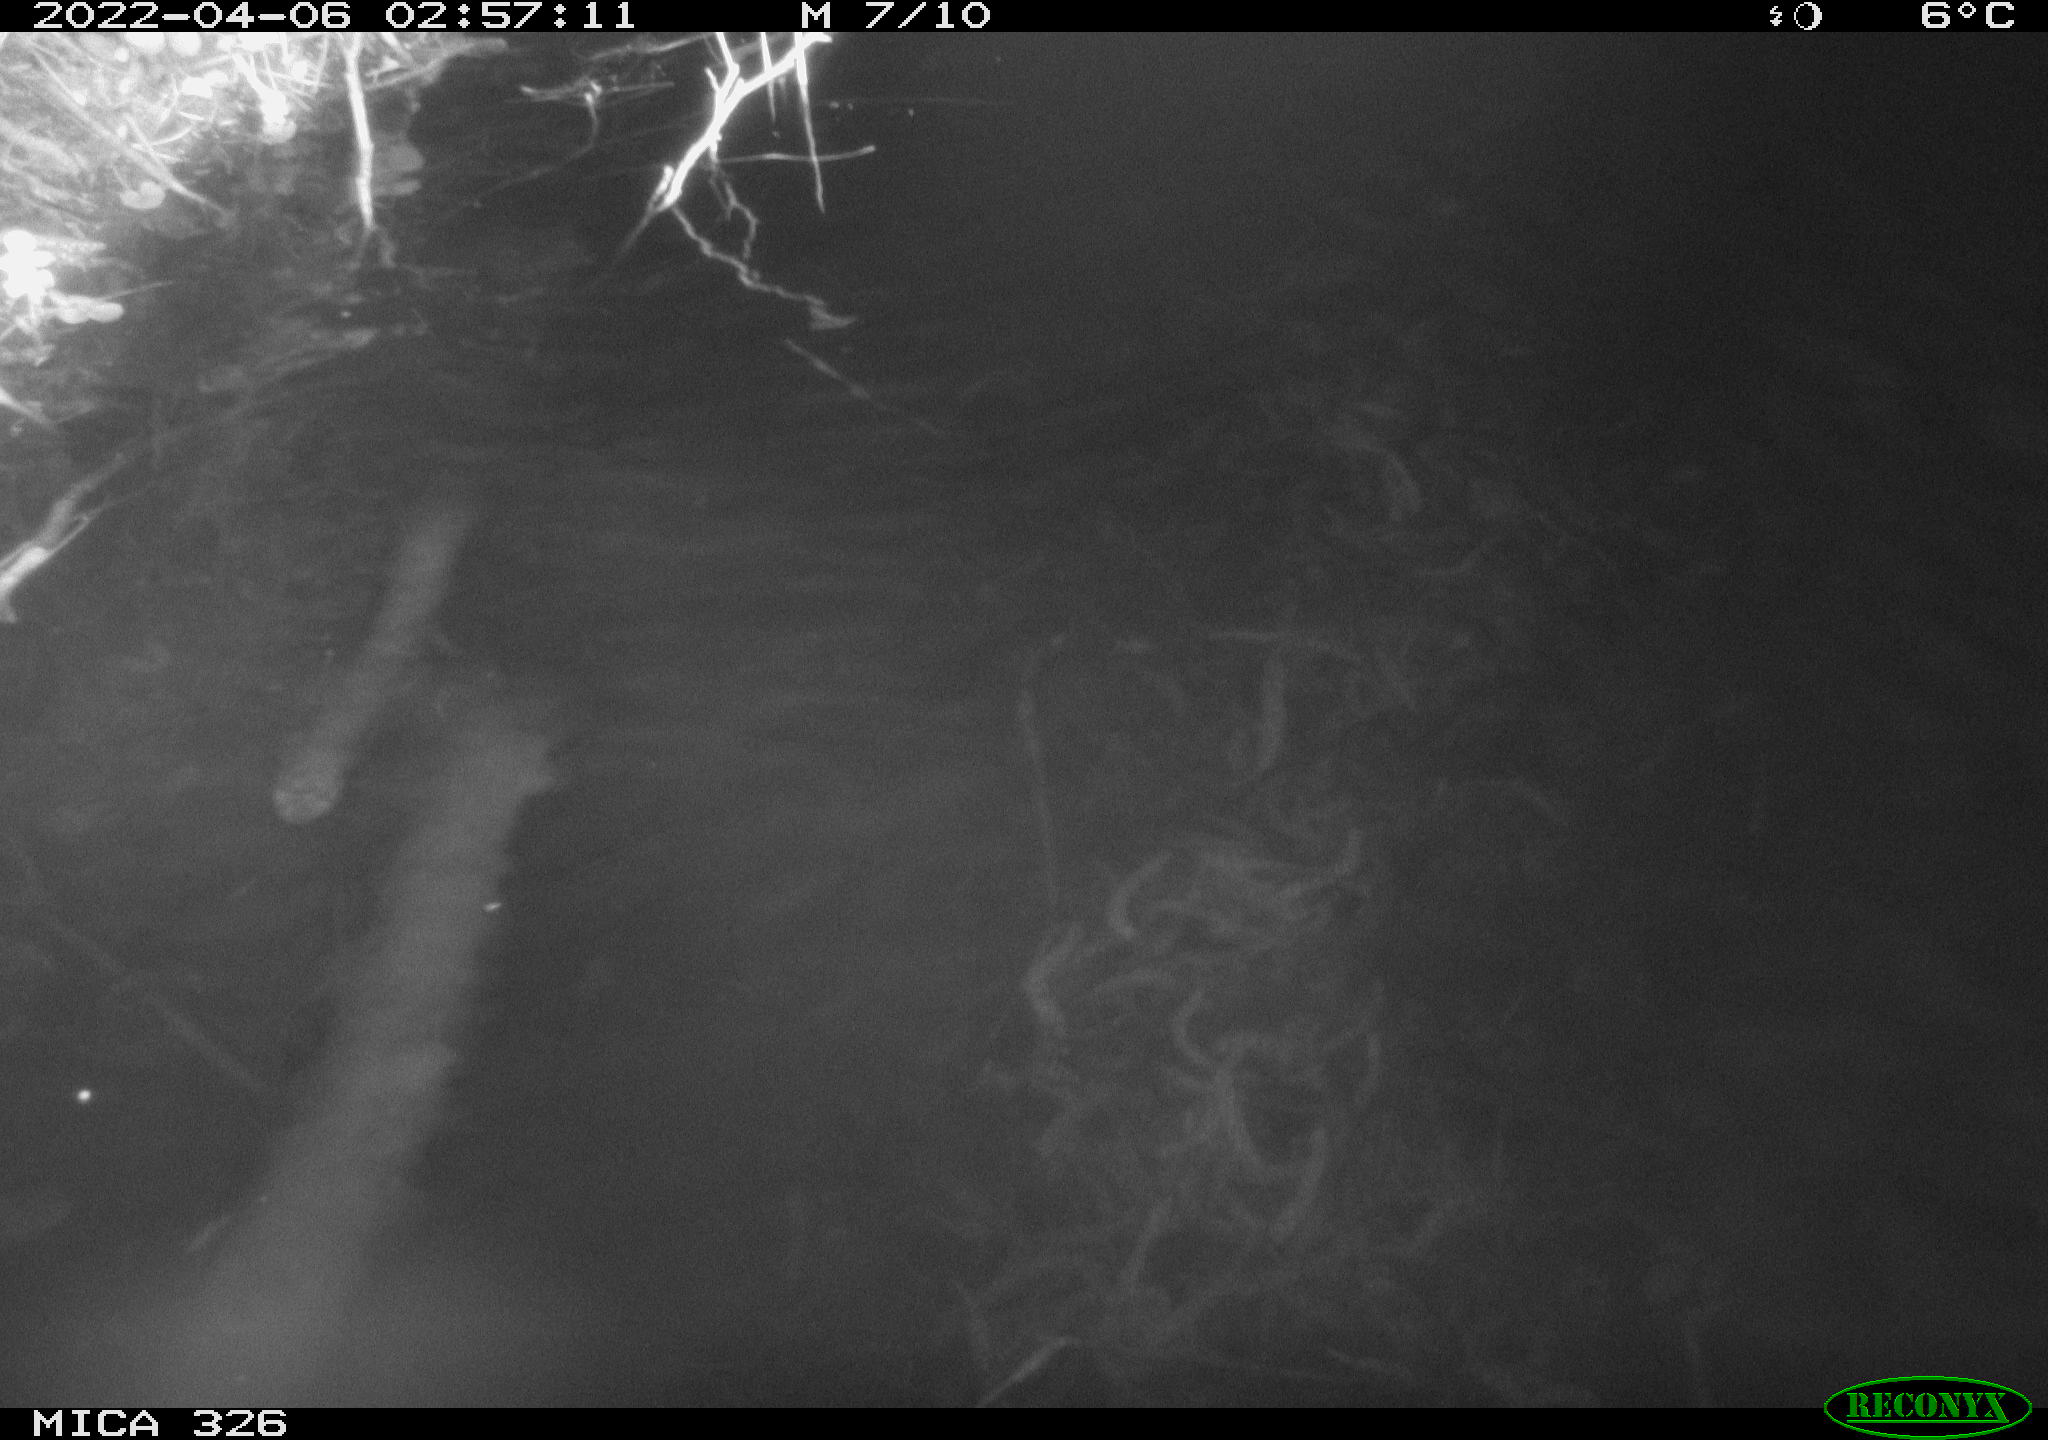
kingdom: Animalia
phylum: Chordata
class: Mammalia
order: Rodentia
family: Muridae
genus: Rattus
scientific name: Rattus norvegicus
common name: Brown rat
